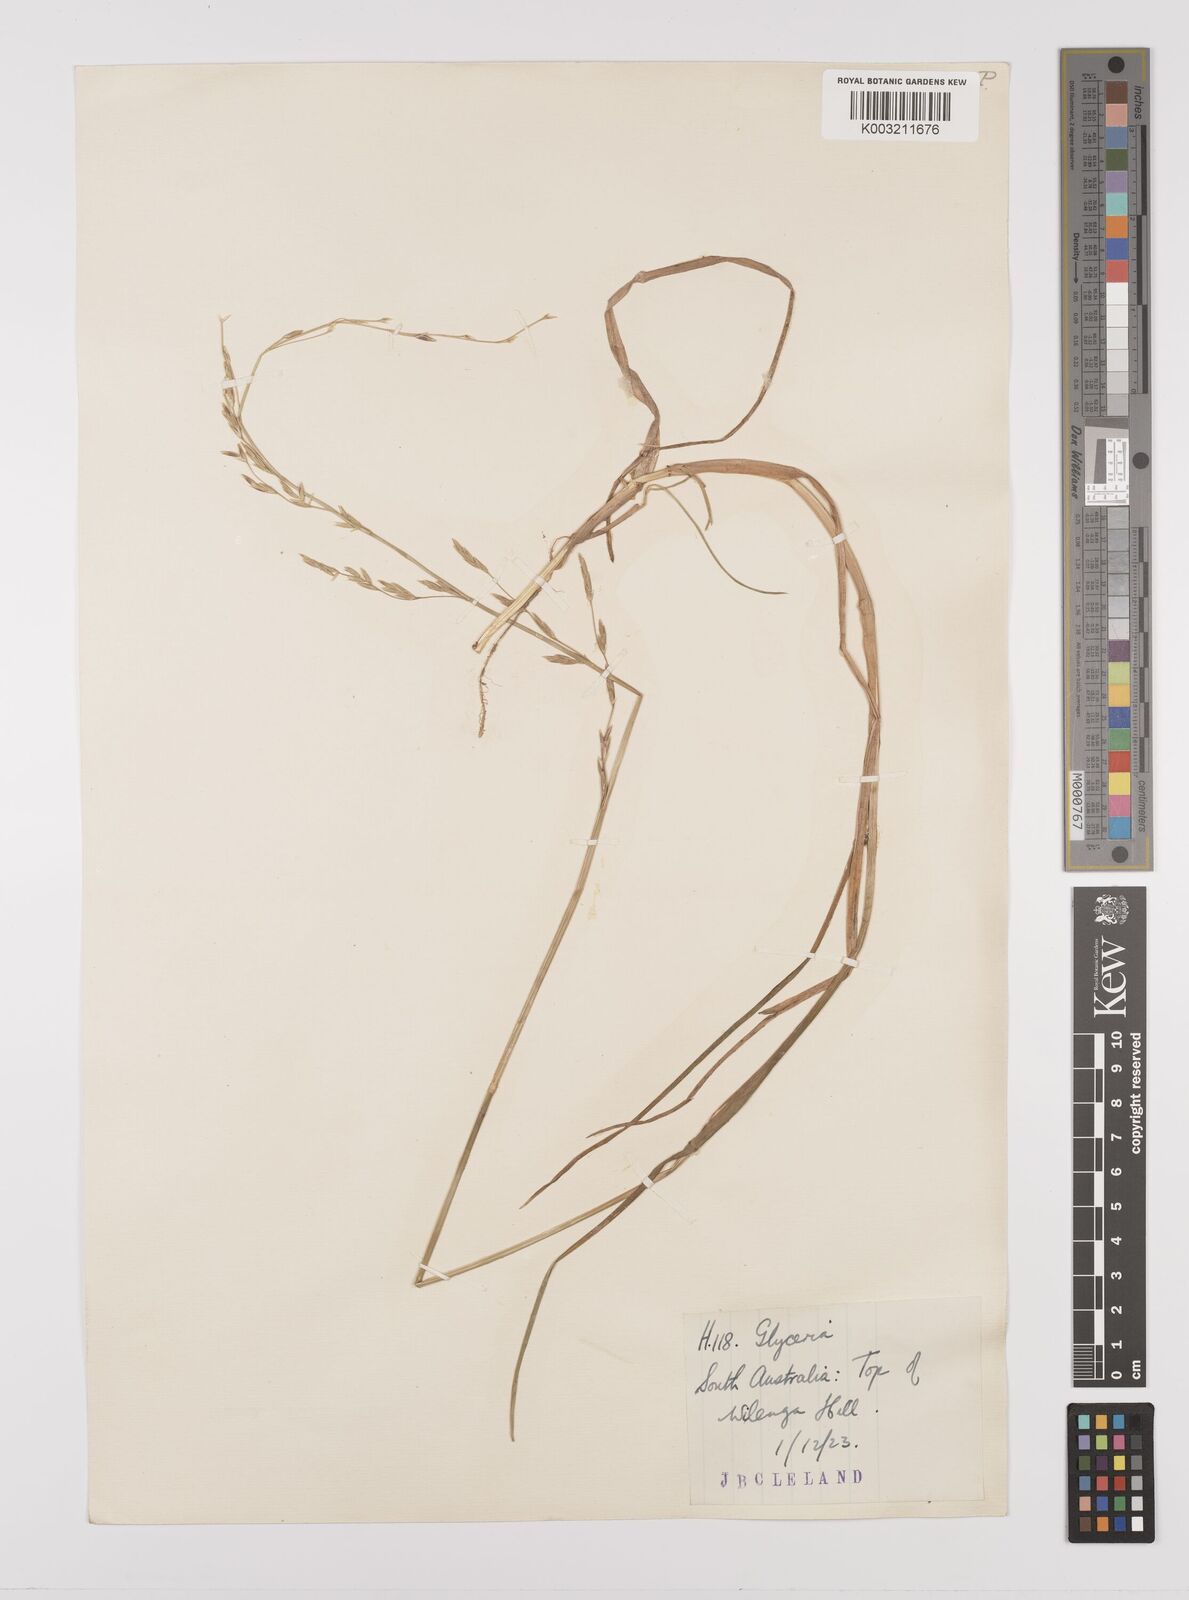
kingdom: Plantae
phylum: Tracheophyta
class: Liliopsida
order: Poales
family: Poaceae
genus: Glyceria
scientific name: Glyceria australis
